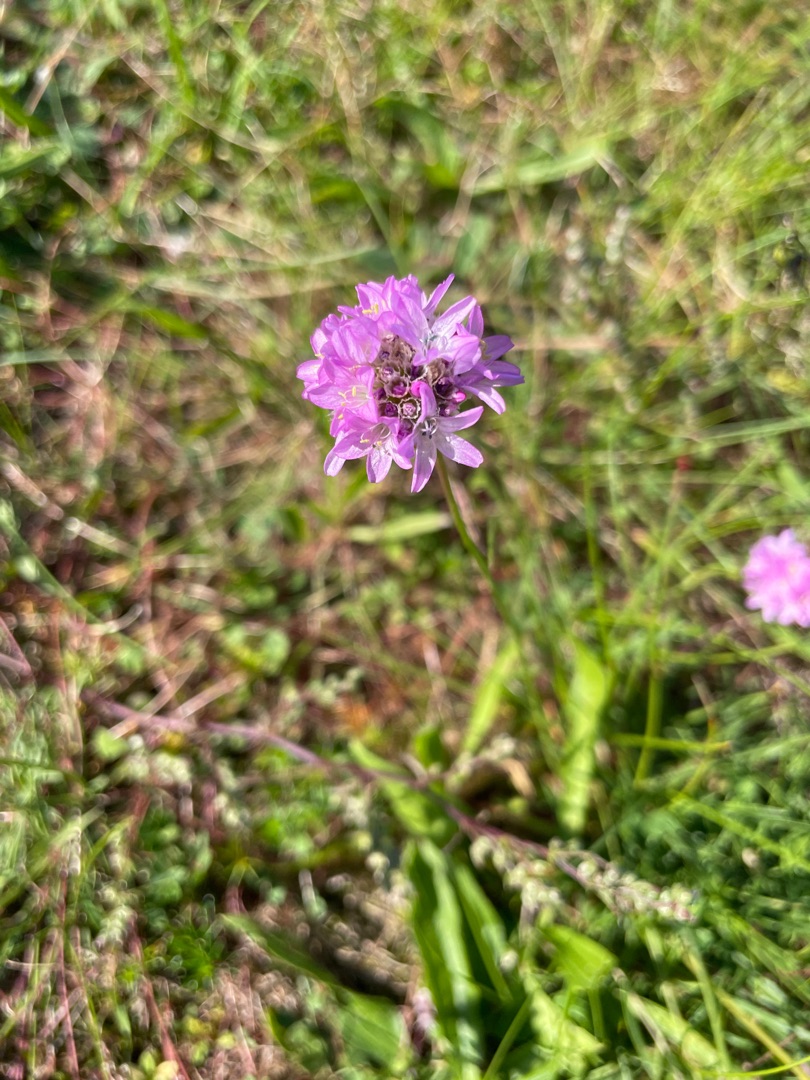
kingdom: Plantae
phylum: Tracheophyta
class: Magnoliopsida
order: Caryophyllales
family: Plumbaginaceae
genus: Armeria
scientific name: Armeria maritima
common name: Engelskgræs
